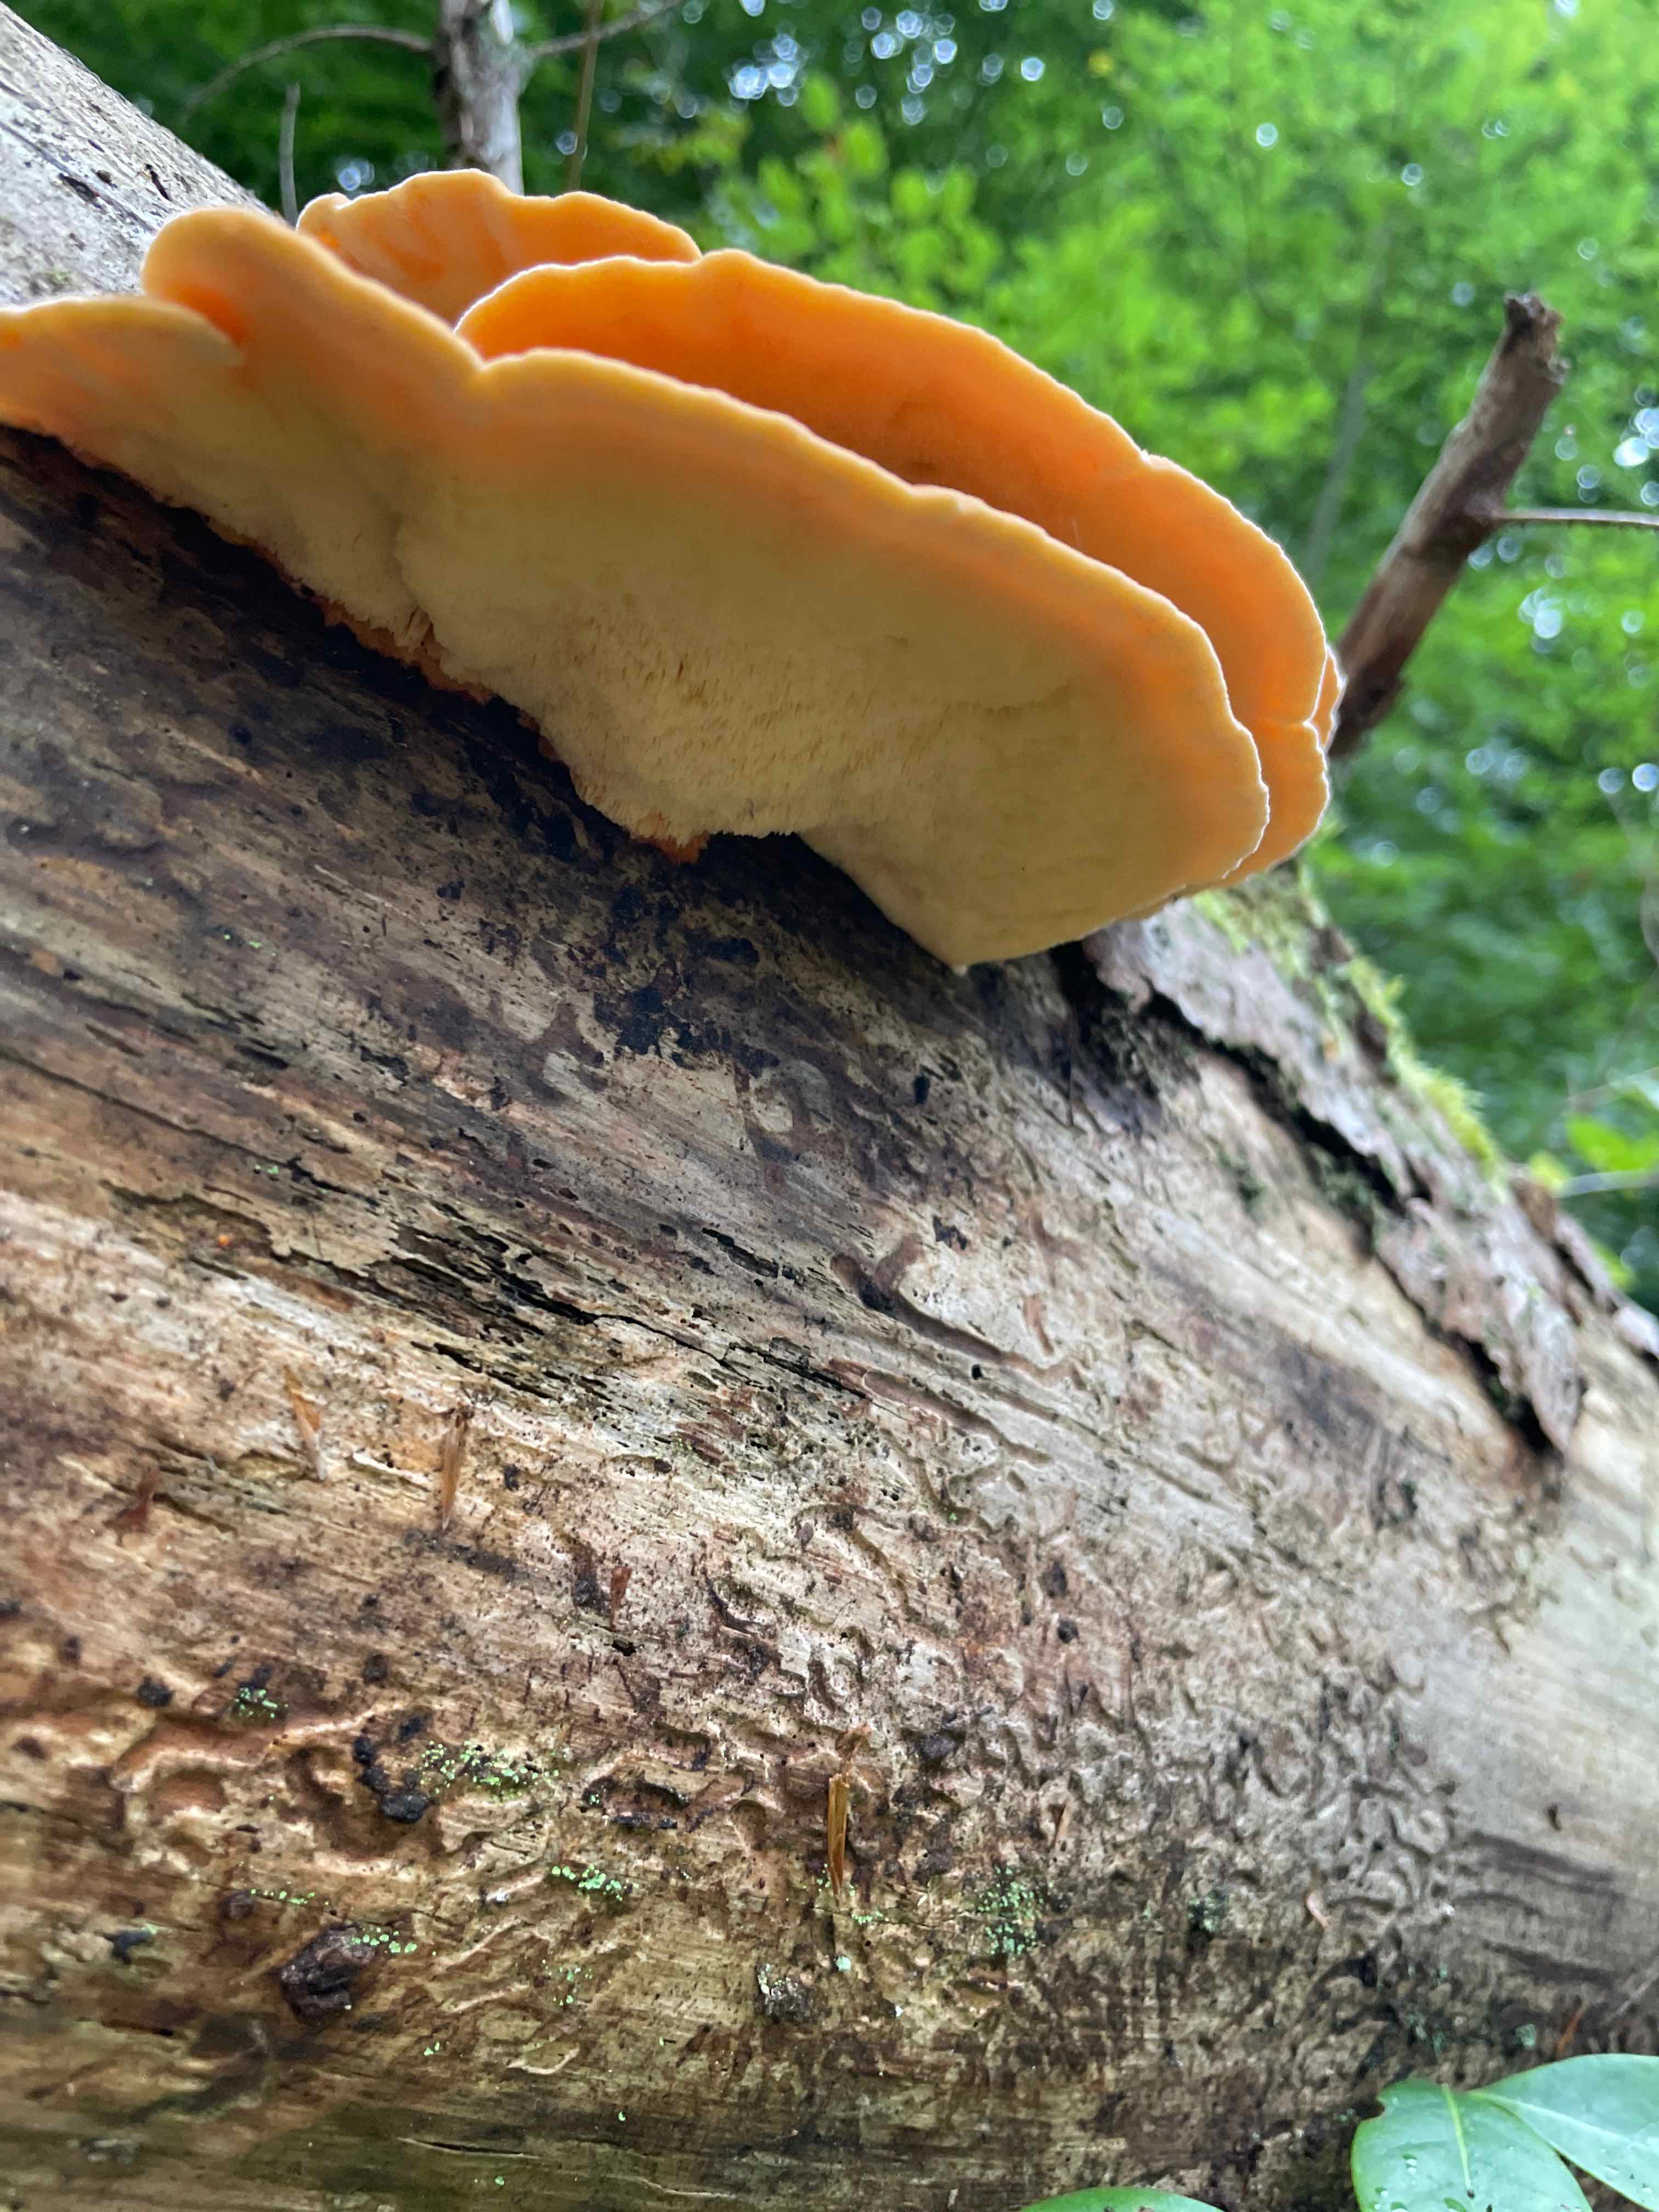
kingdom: Fungi
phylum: Basidiomycota
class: Agaricomycetes
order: Polyporales
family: Pycnoporellaceae
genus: Pycnoporellus
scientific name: Pycnoporellus fulgens
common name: flammeporesvamp
